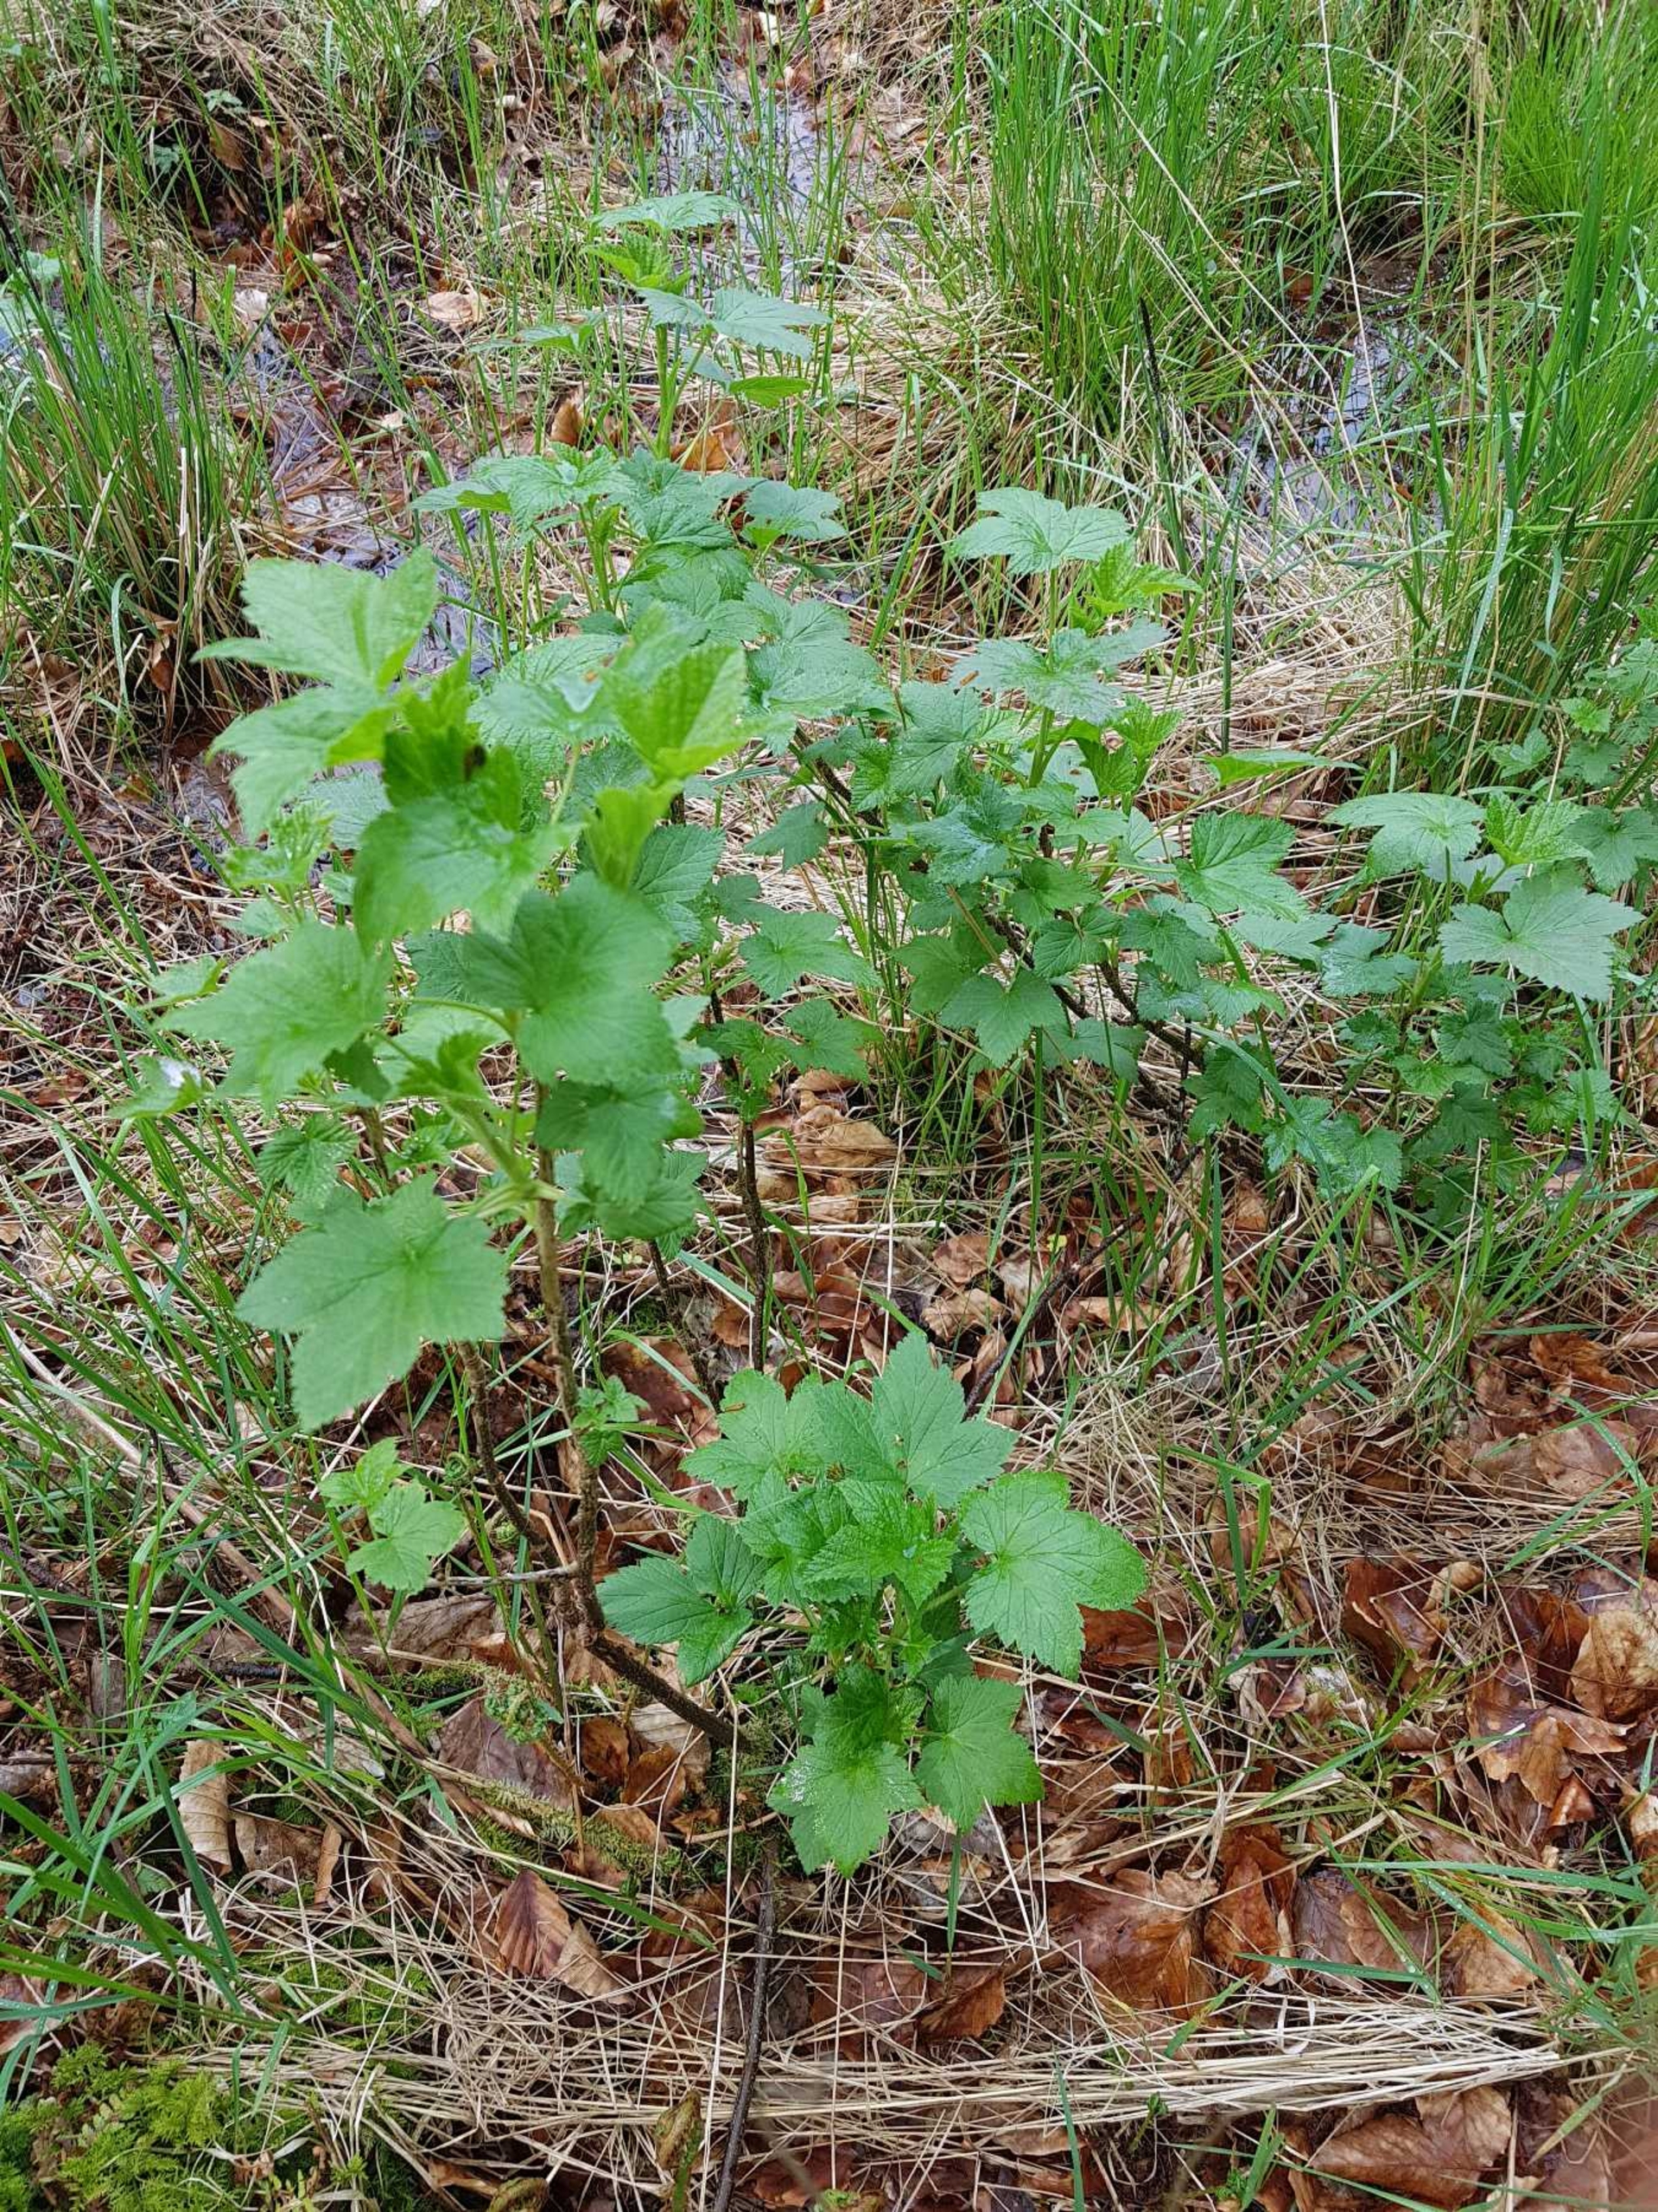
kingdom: Plantae
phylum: Tracheophyta
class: Magnoliopsida
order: Saxifragales
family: Grossulariaceae
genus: Ribes
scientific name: Ribes nigrum
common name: Solbær
